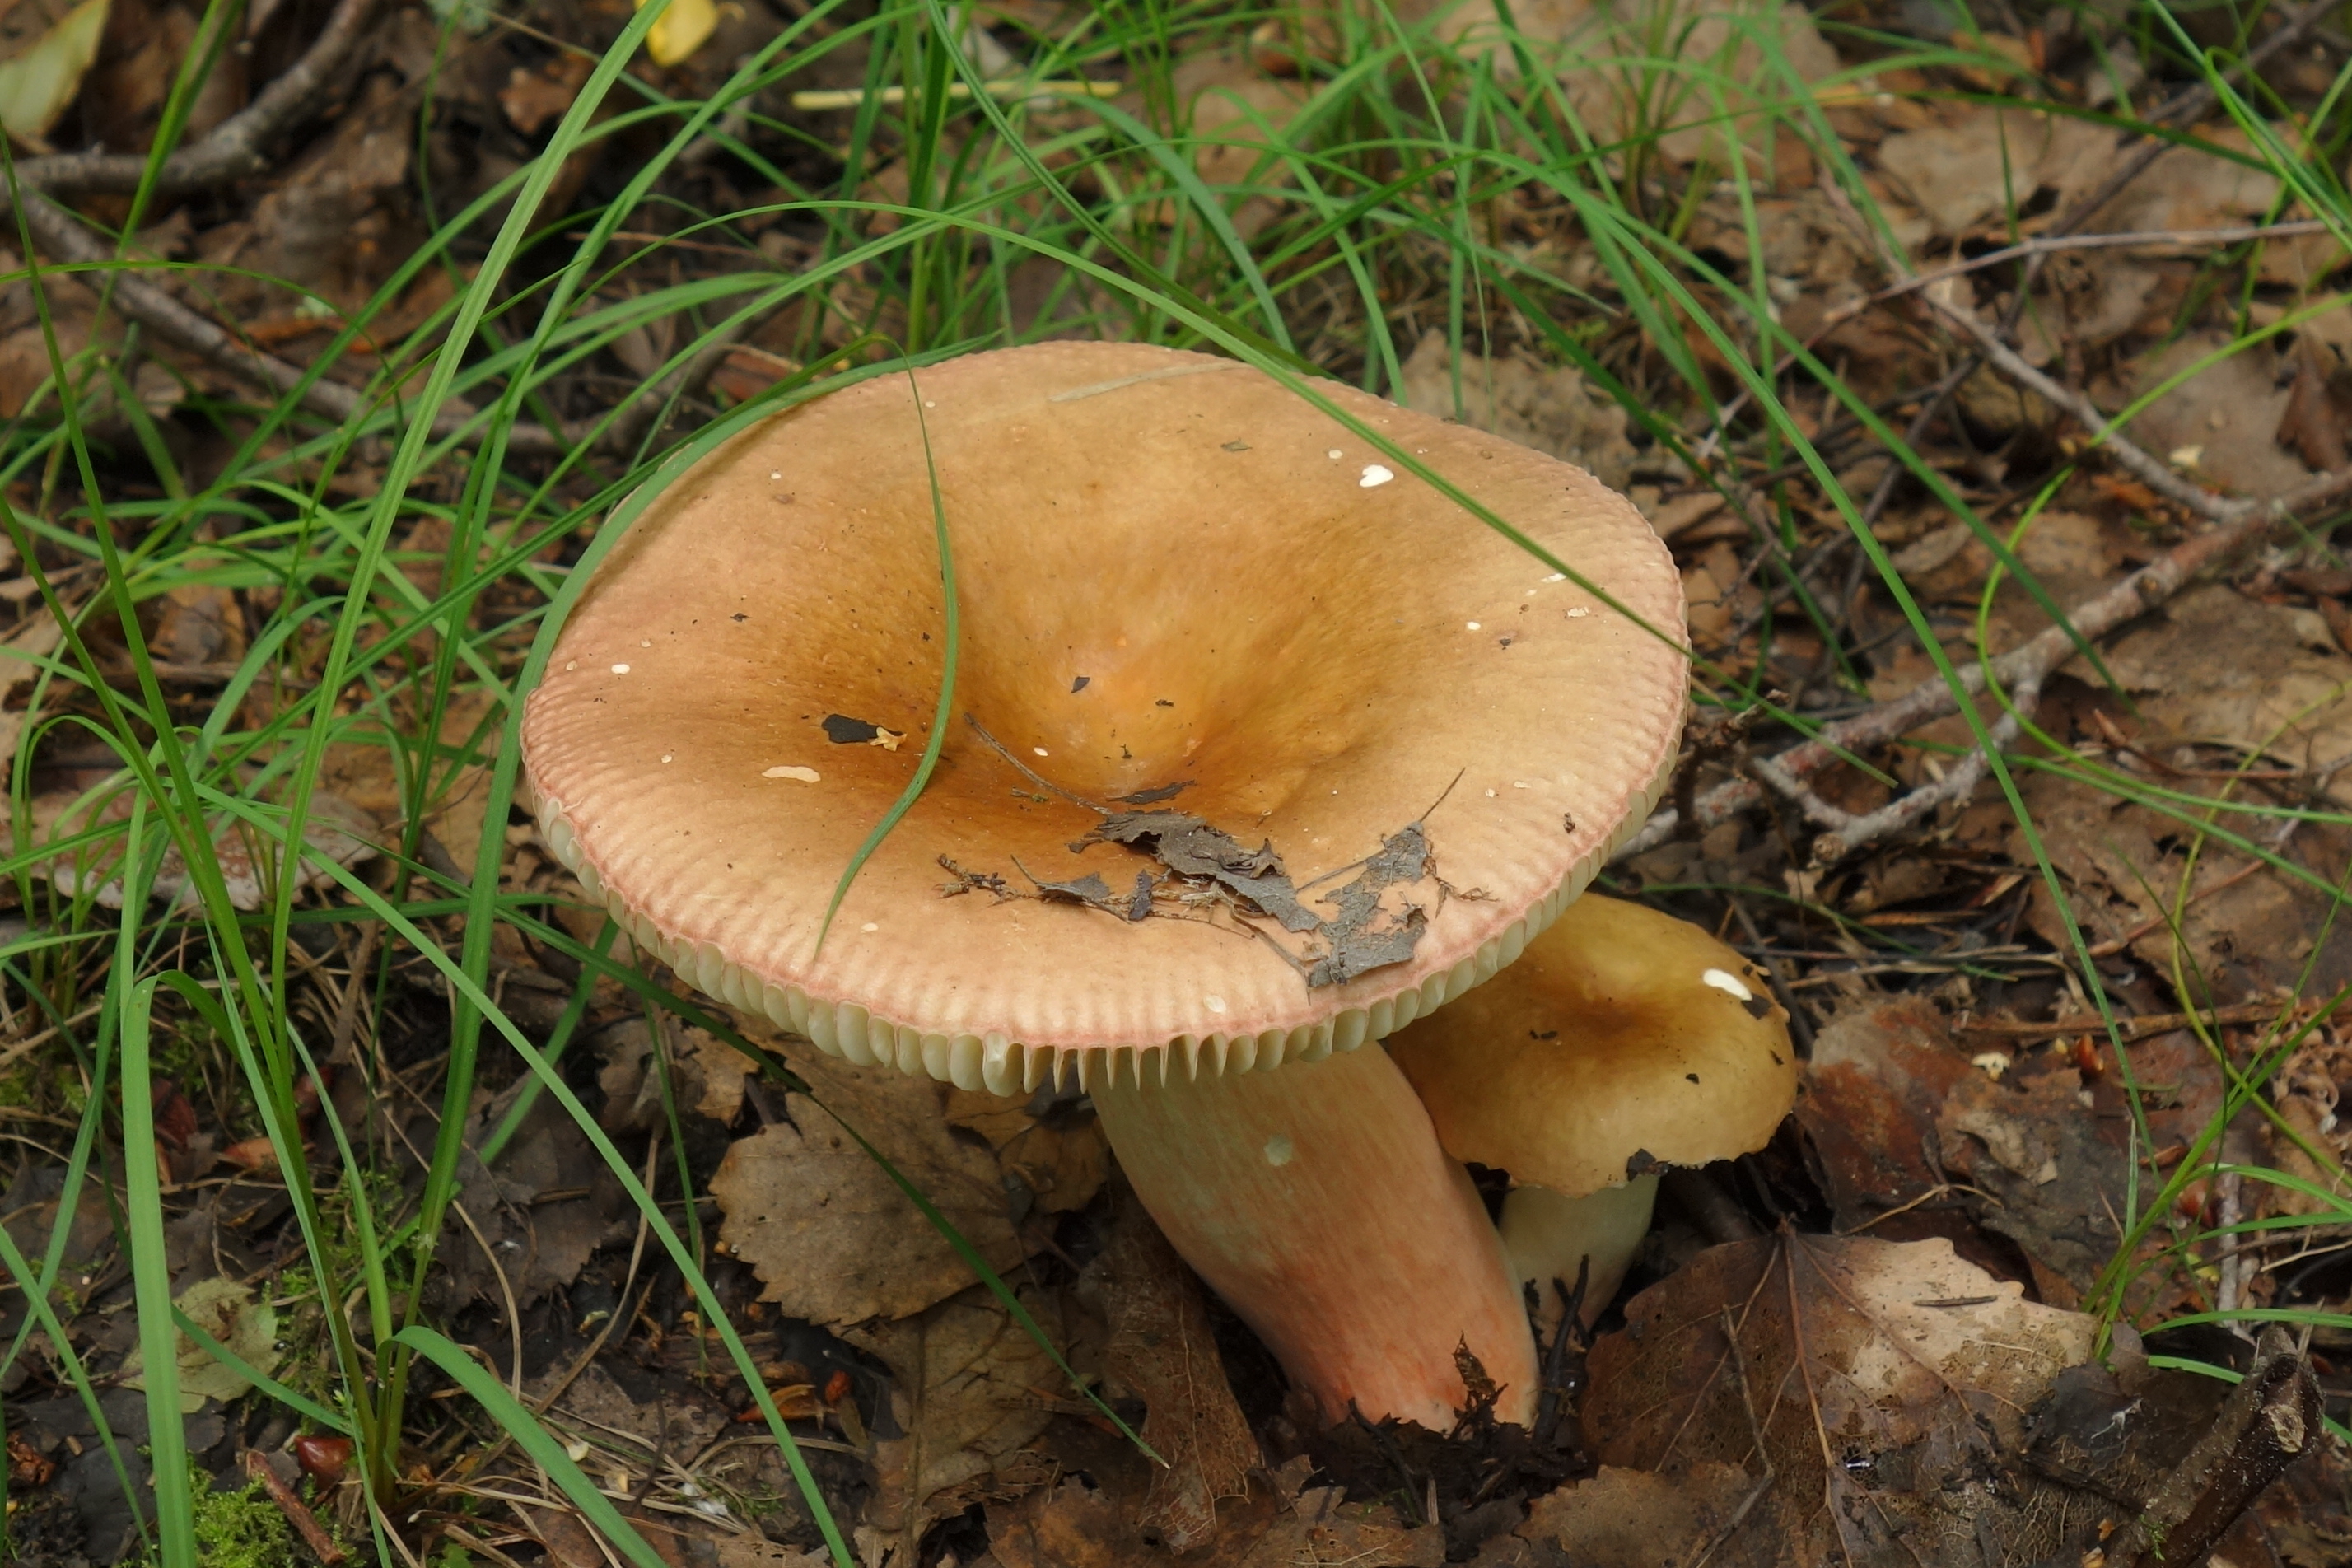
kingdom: Fungi
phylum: Basidiomycota
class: Agaricomycetes
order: Russulales
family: Russulaceae
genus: Russula
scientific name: Russula xerampelina
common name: Crab brittlegill
